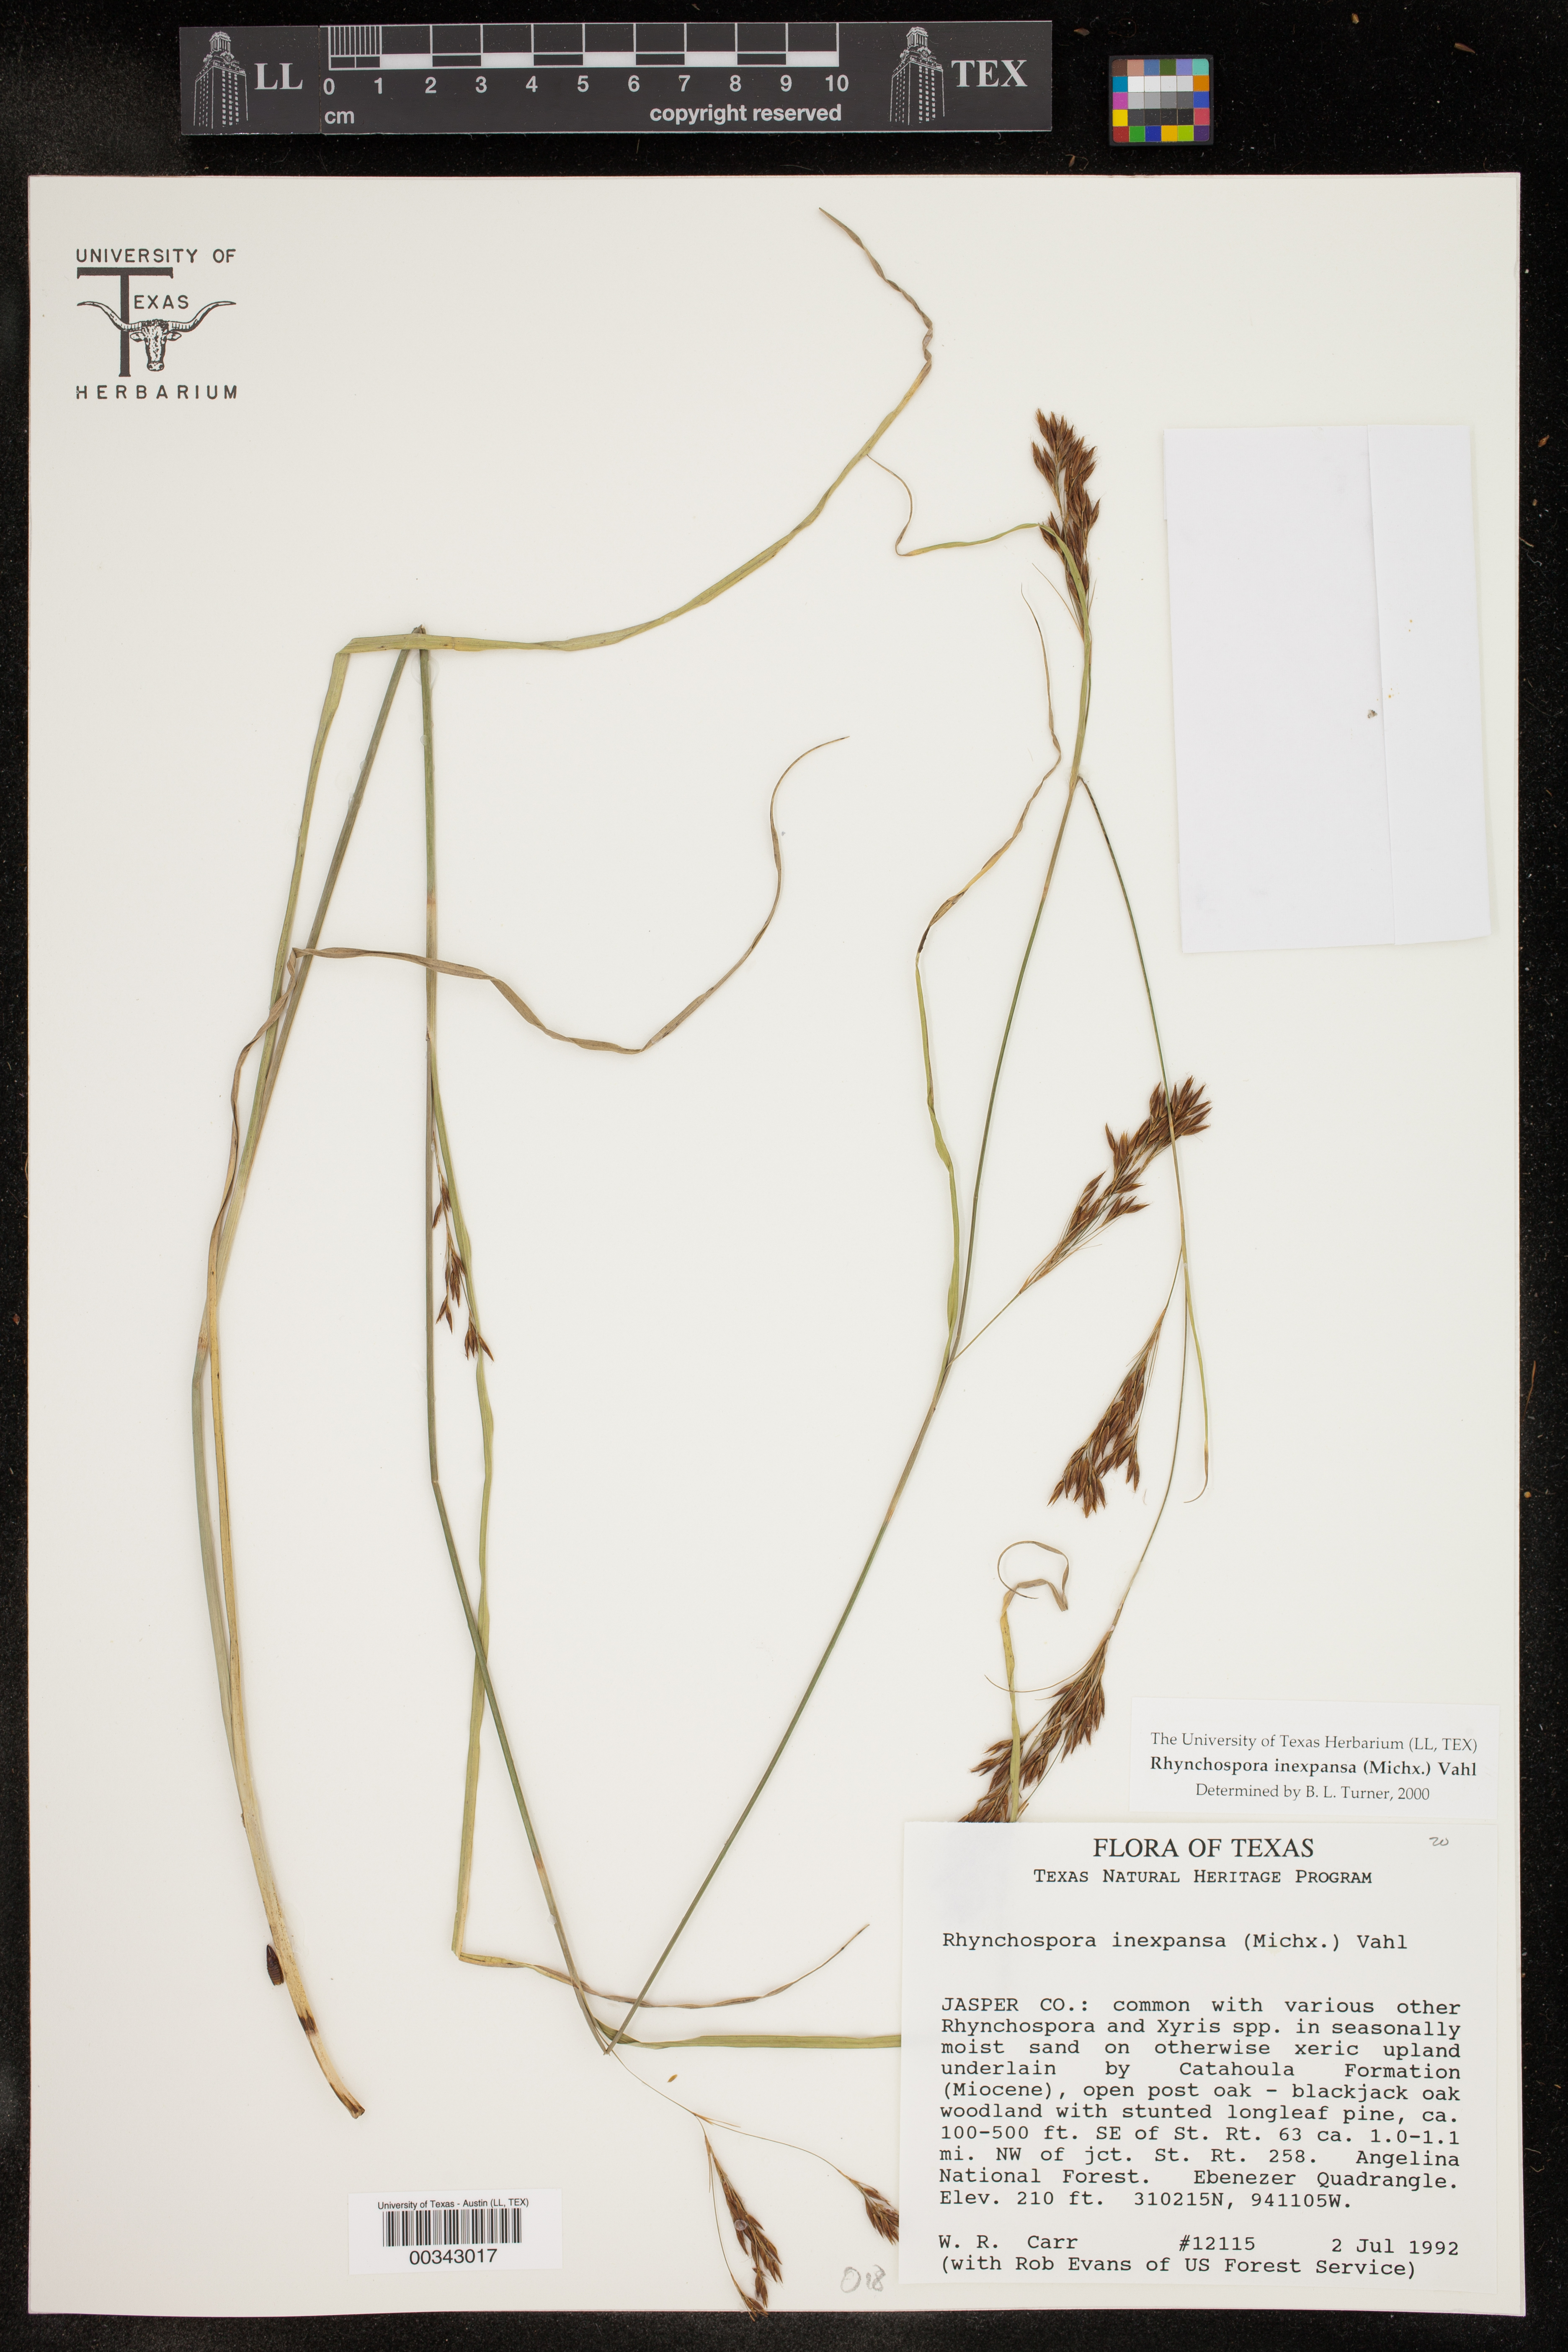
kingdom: Plantae
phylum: Tracheophyta
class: Liliopsida
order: Poales
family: Cyperaceae
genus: Rhynchospora
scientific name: Rhynchospora inexpansa
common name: Nodding beaksedge
